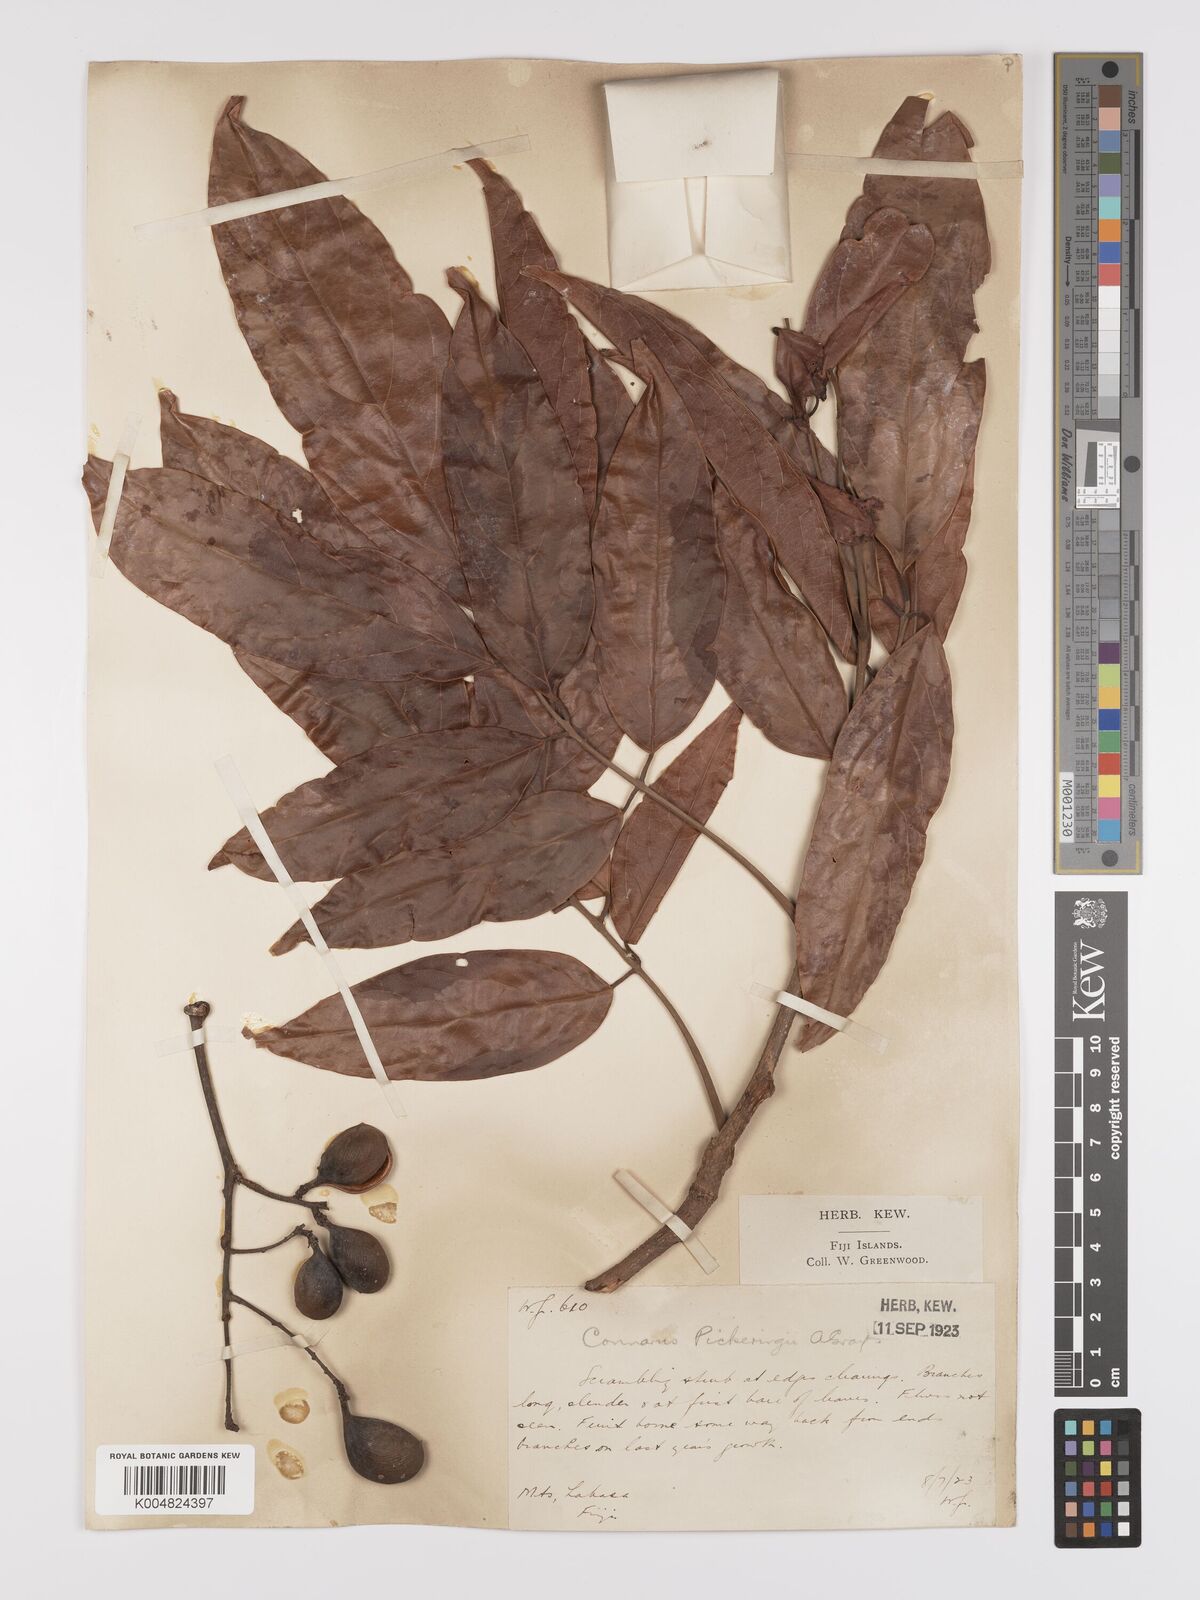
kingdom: Plantae
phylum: Tracheophyta
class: Magnoliopsida
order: Oxalidales
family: Connaraceae
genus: Connarus
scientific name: Connarus pickeringii
